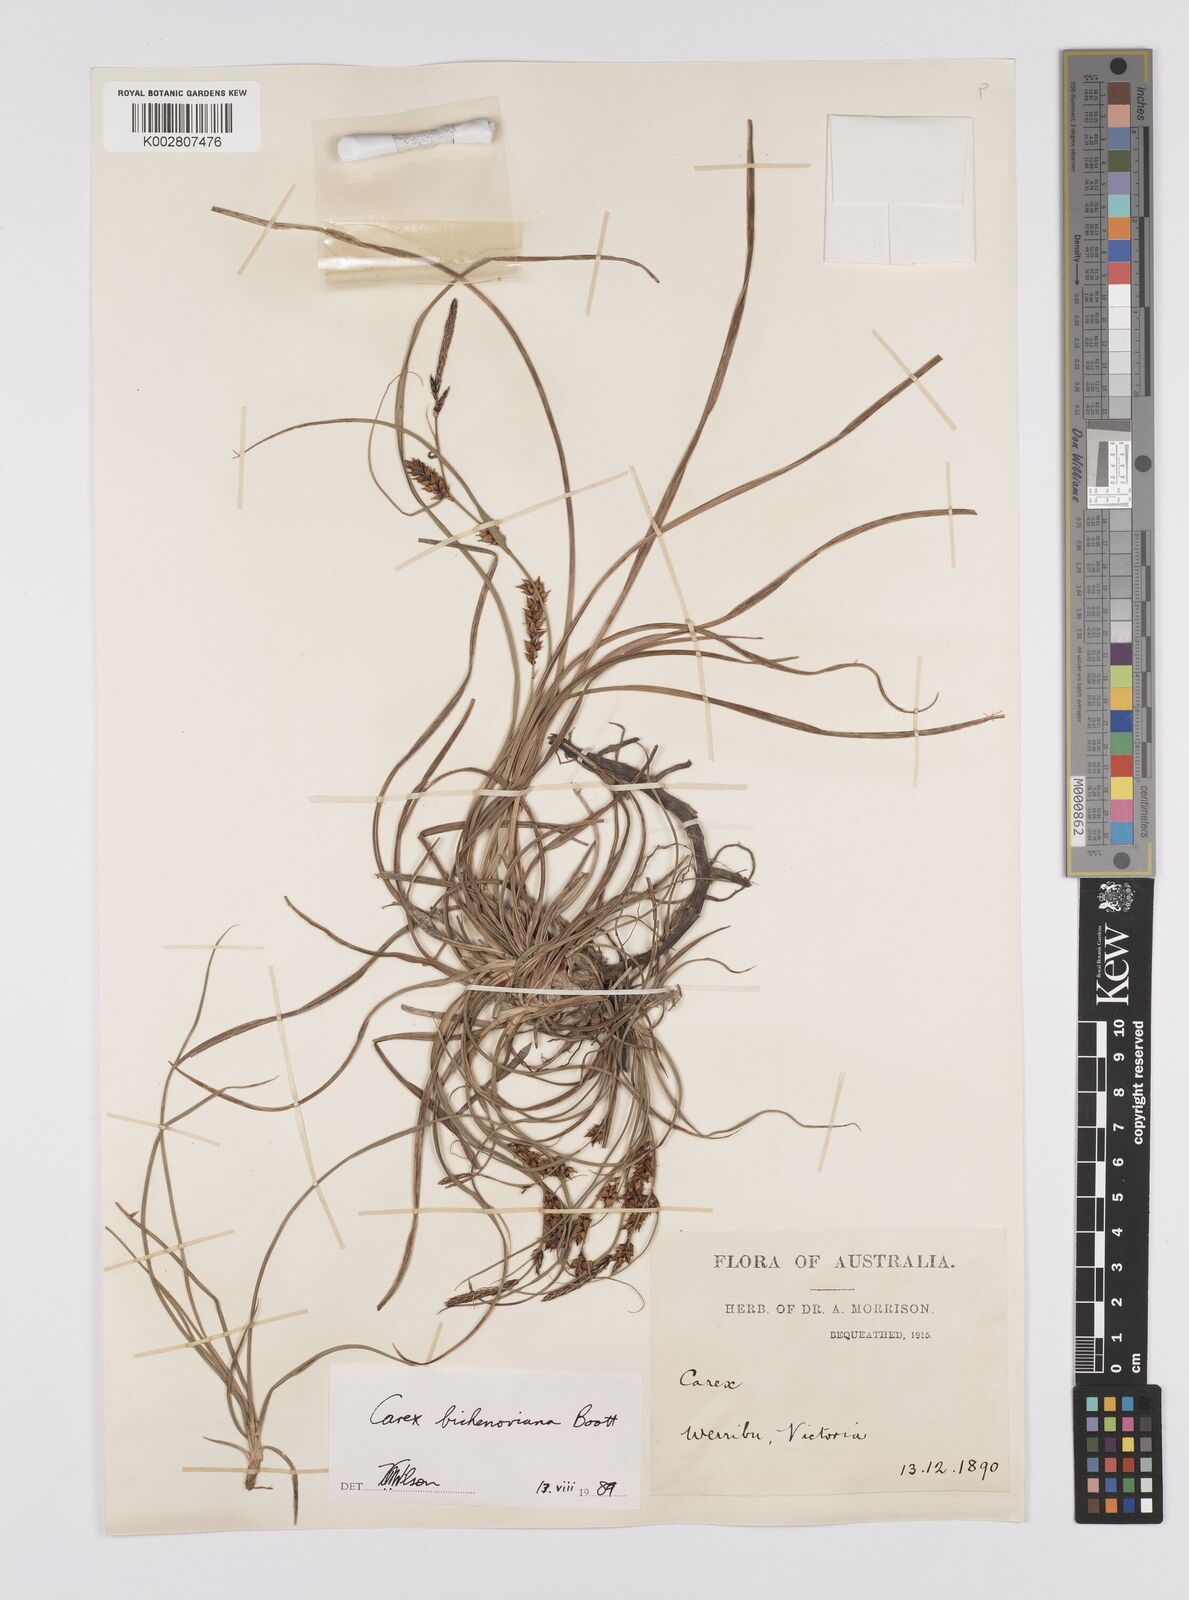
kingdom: Plantae
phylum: Tracheophyta
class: Liliopsida
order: Poales
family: Cyperaceae
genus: Carex
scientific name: Carex bichenoviana
